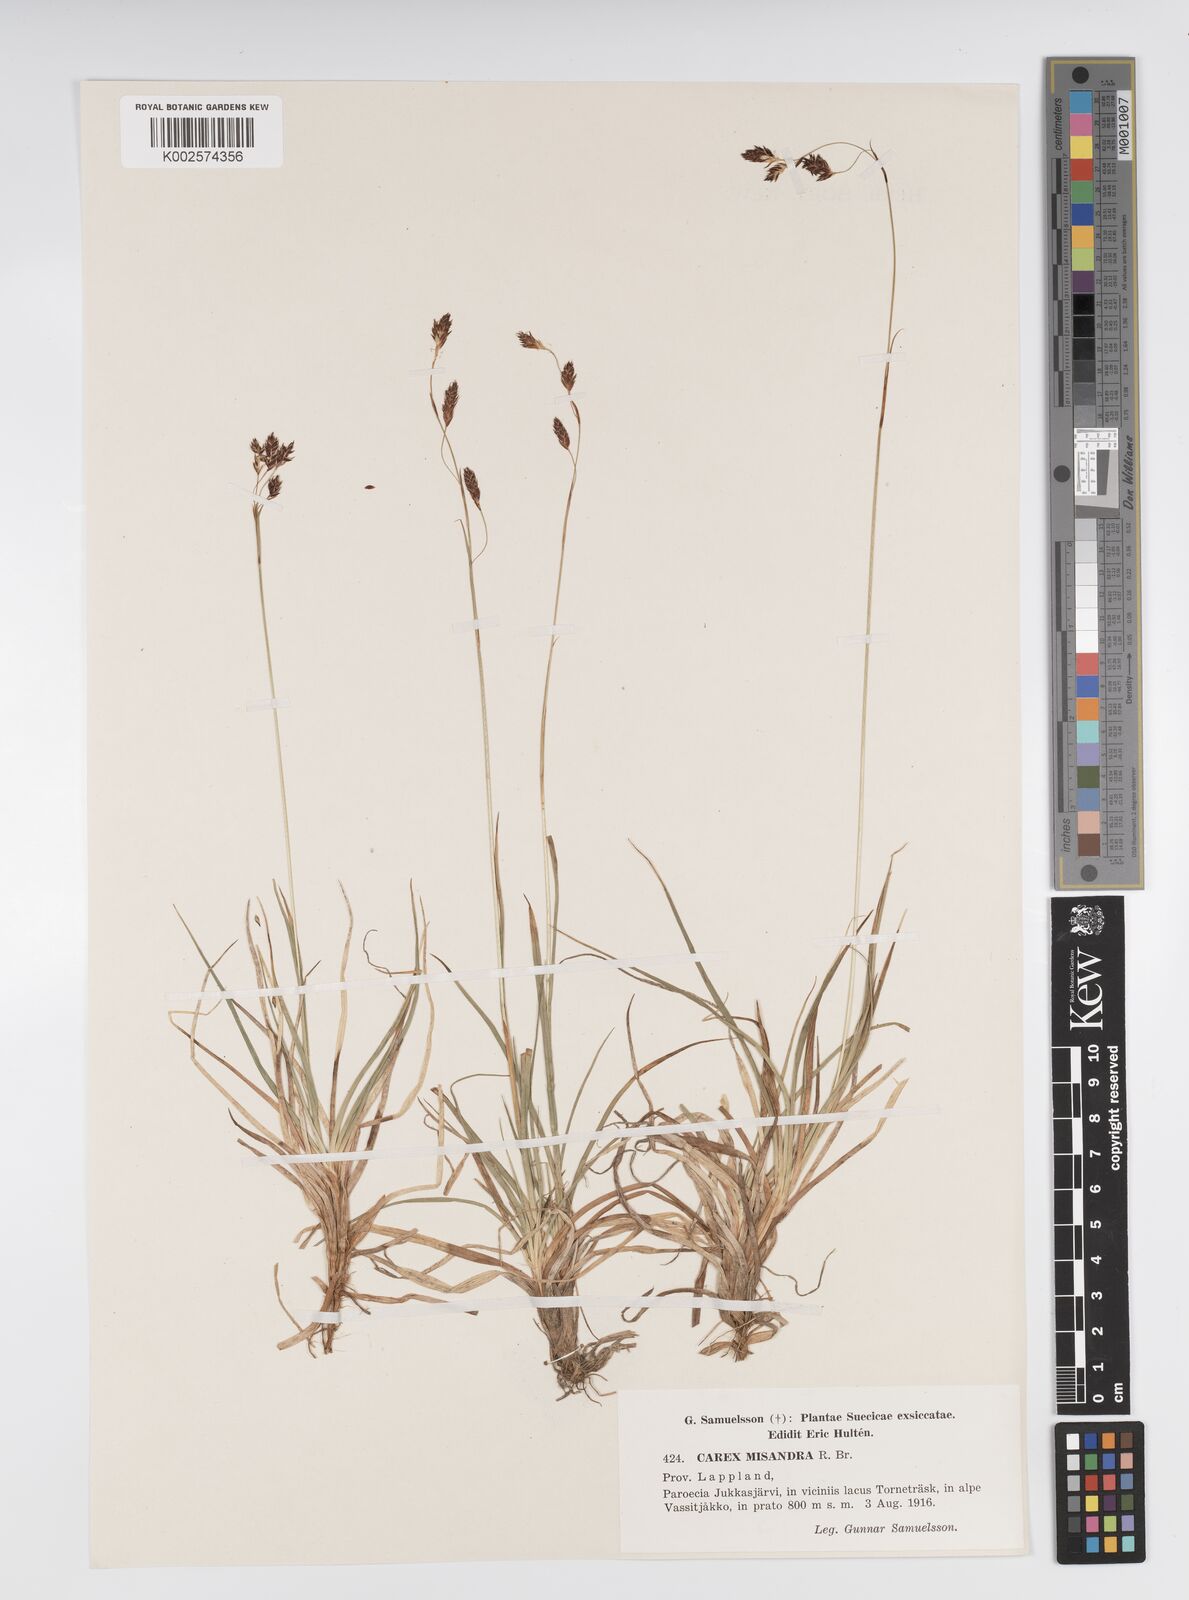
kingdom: Plantae
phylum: Tracheophyta
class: Liliopsida
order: Poales
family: Cyperaceae
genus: Carex
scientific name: Carex fuliginosa
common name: Few-flowered sedge
